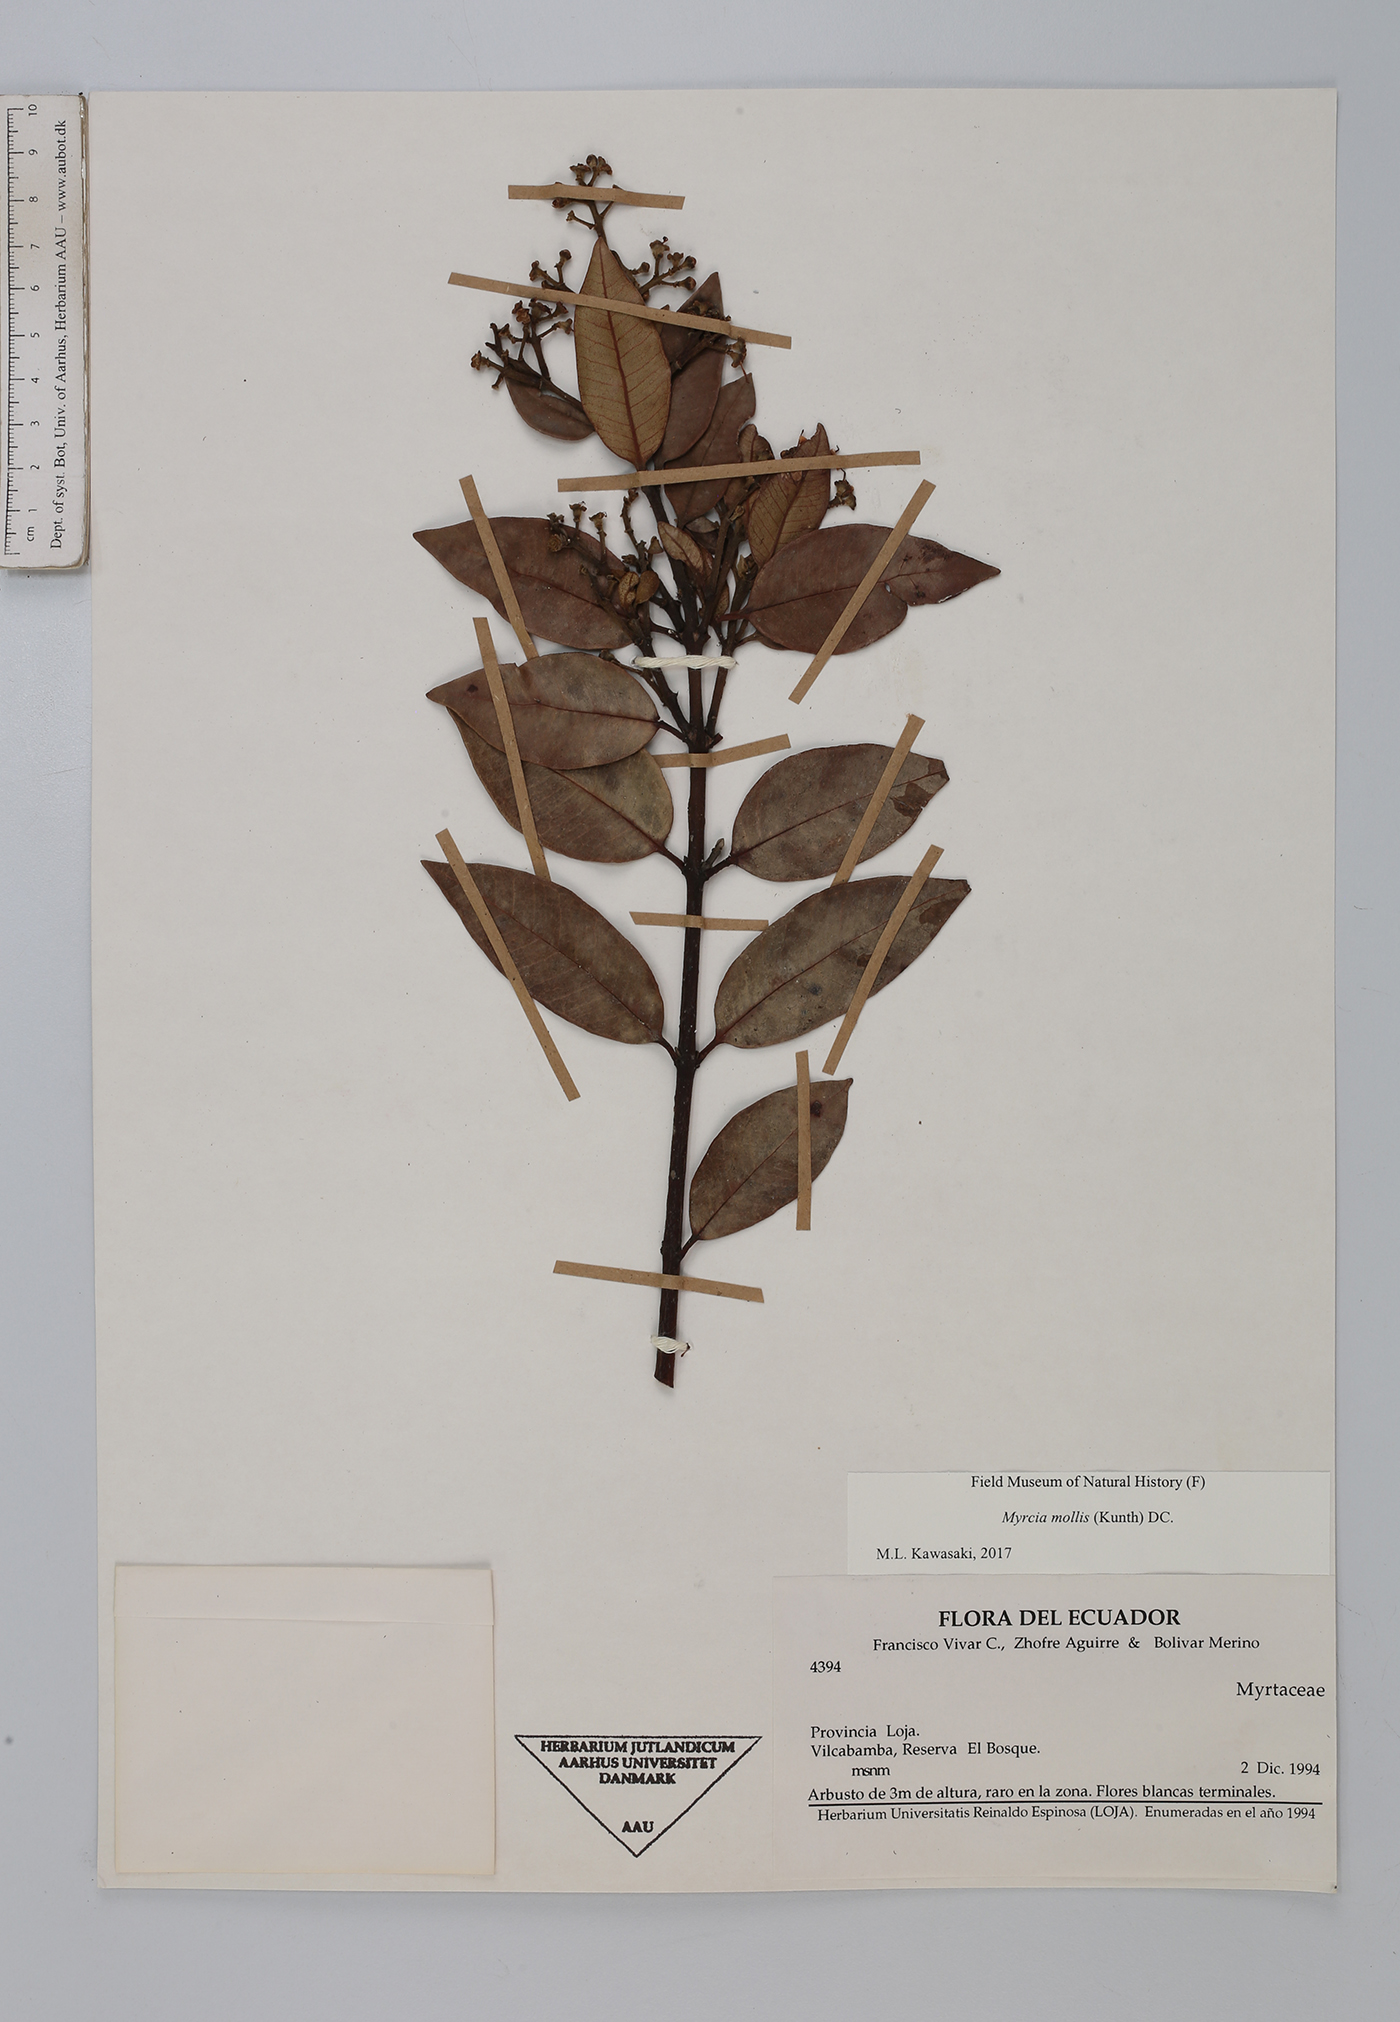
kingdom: Plantae
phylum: Tracheophyta
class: Magnoliopsida
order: Myrtales
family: Myrtaceae
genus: Myrcia
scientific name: Myrcia mollis
